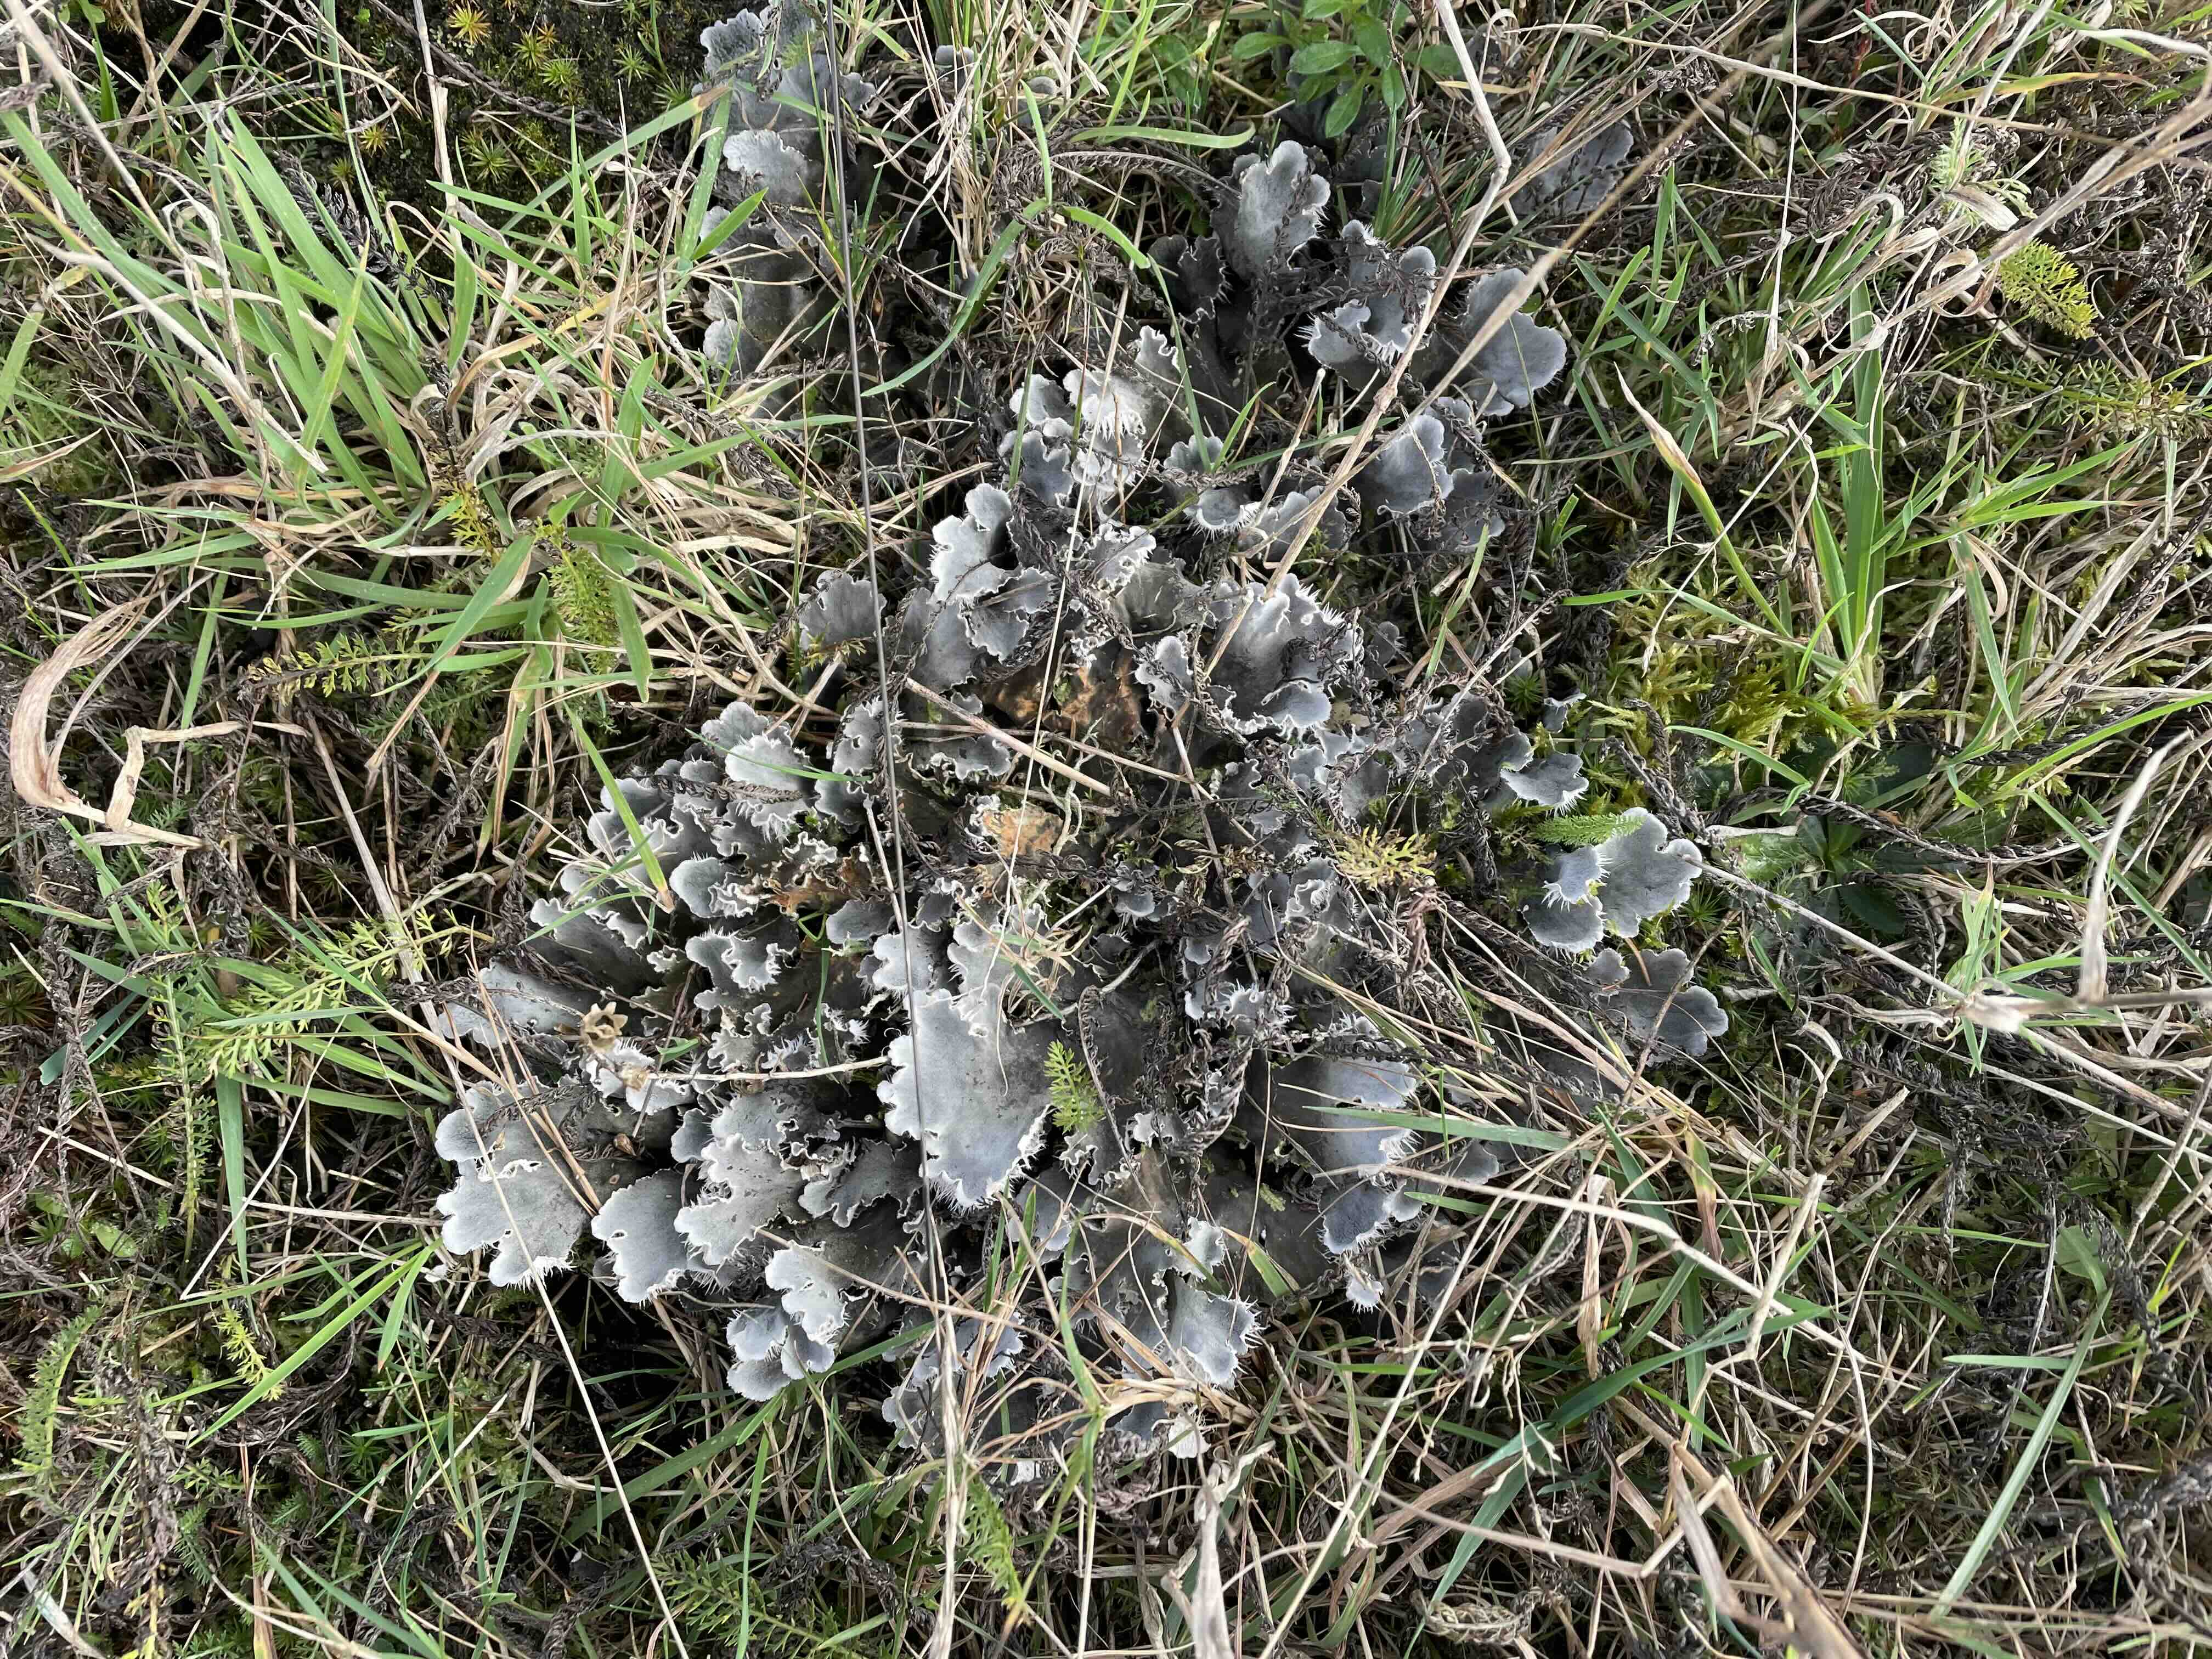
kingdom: Fungi
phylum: Ascomycota
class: Lecanoromycetes
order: Peltigerales
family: Peltigeraceae
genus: Peltigera
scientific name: Peltigera membranacea
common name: tynd skjoldlav
